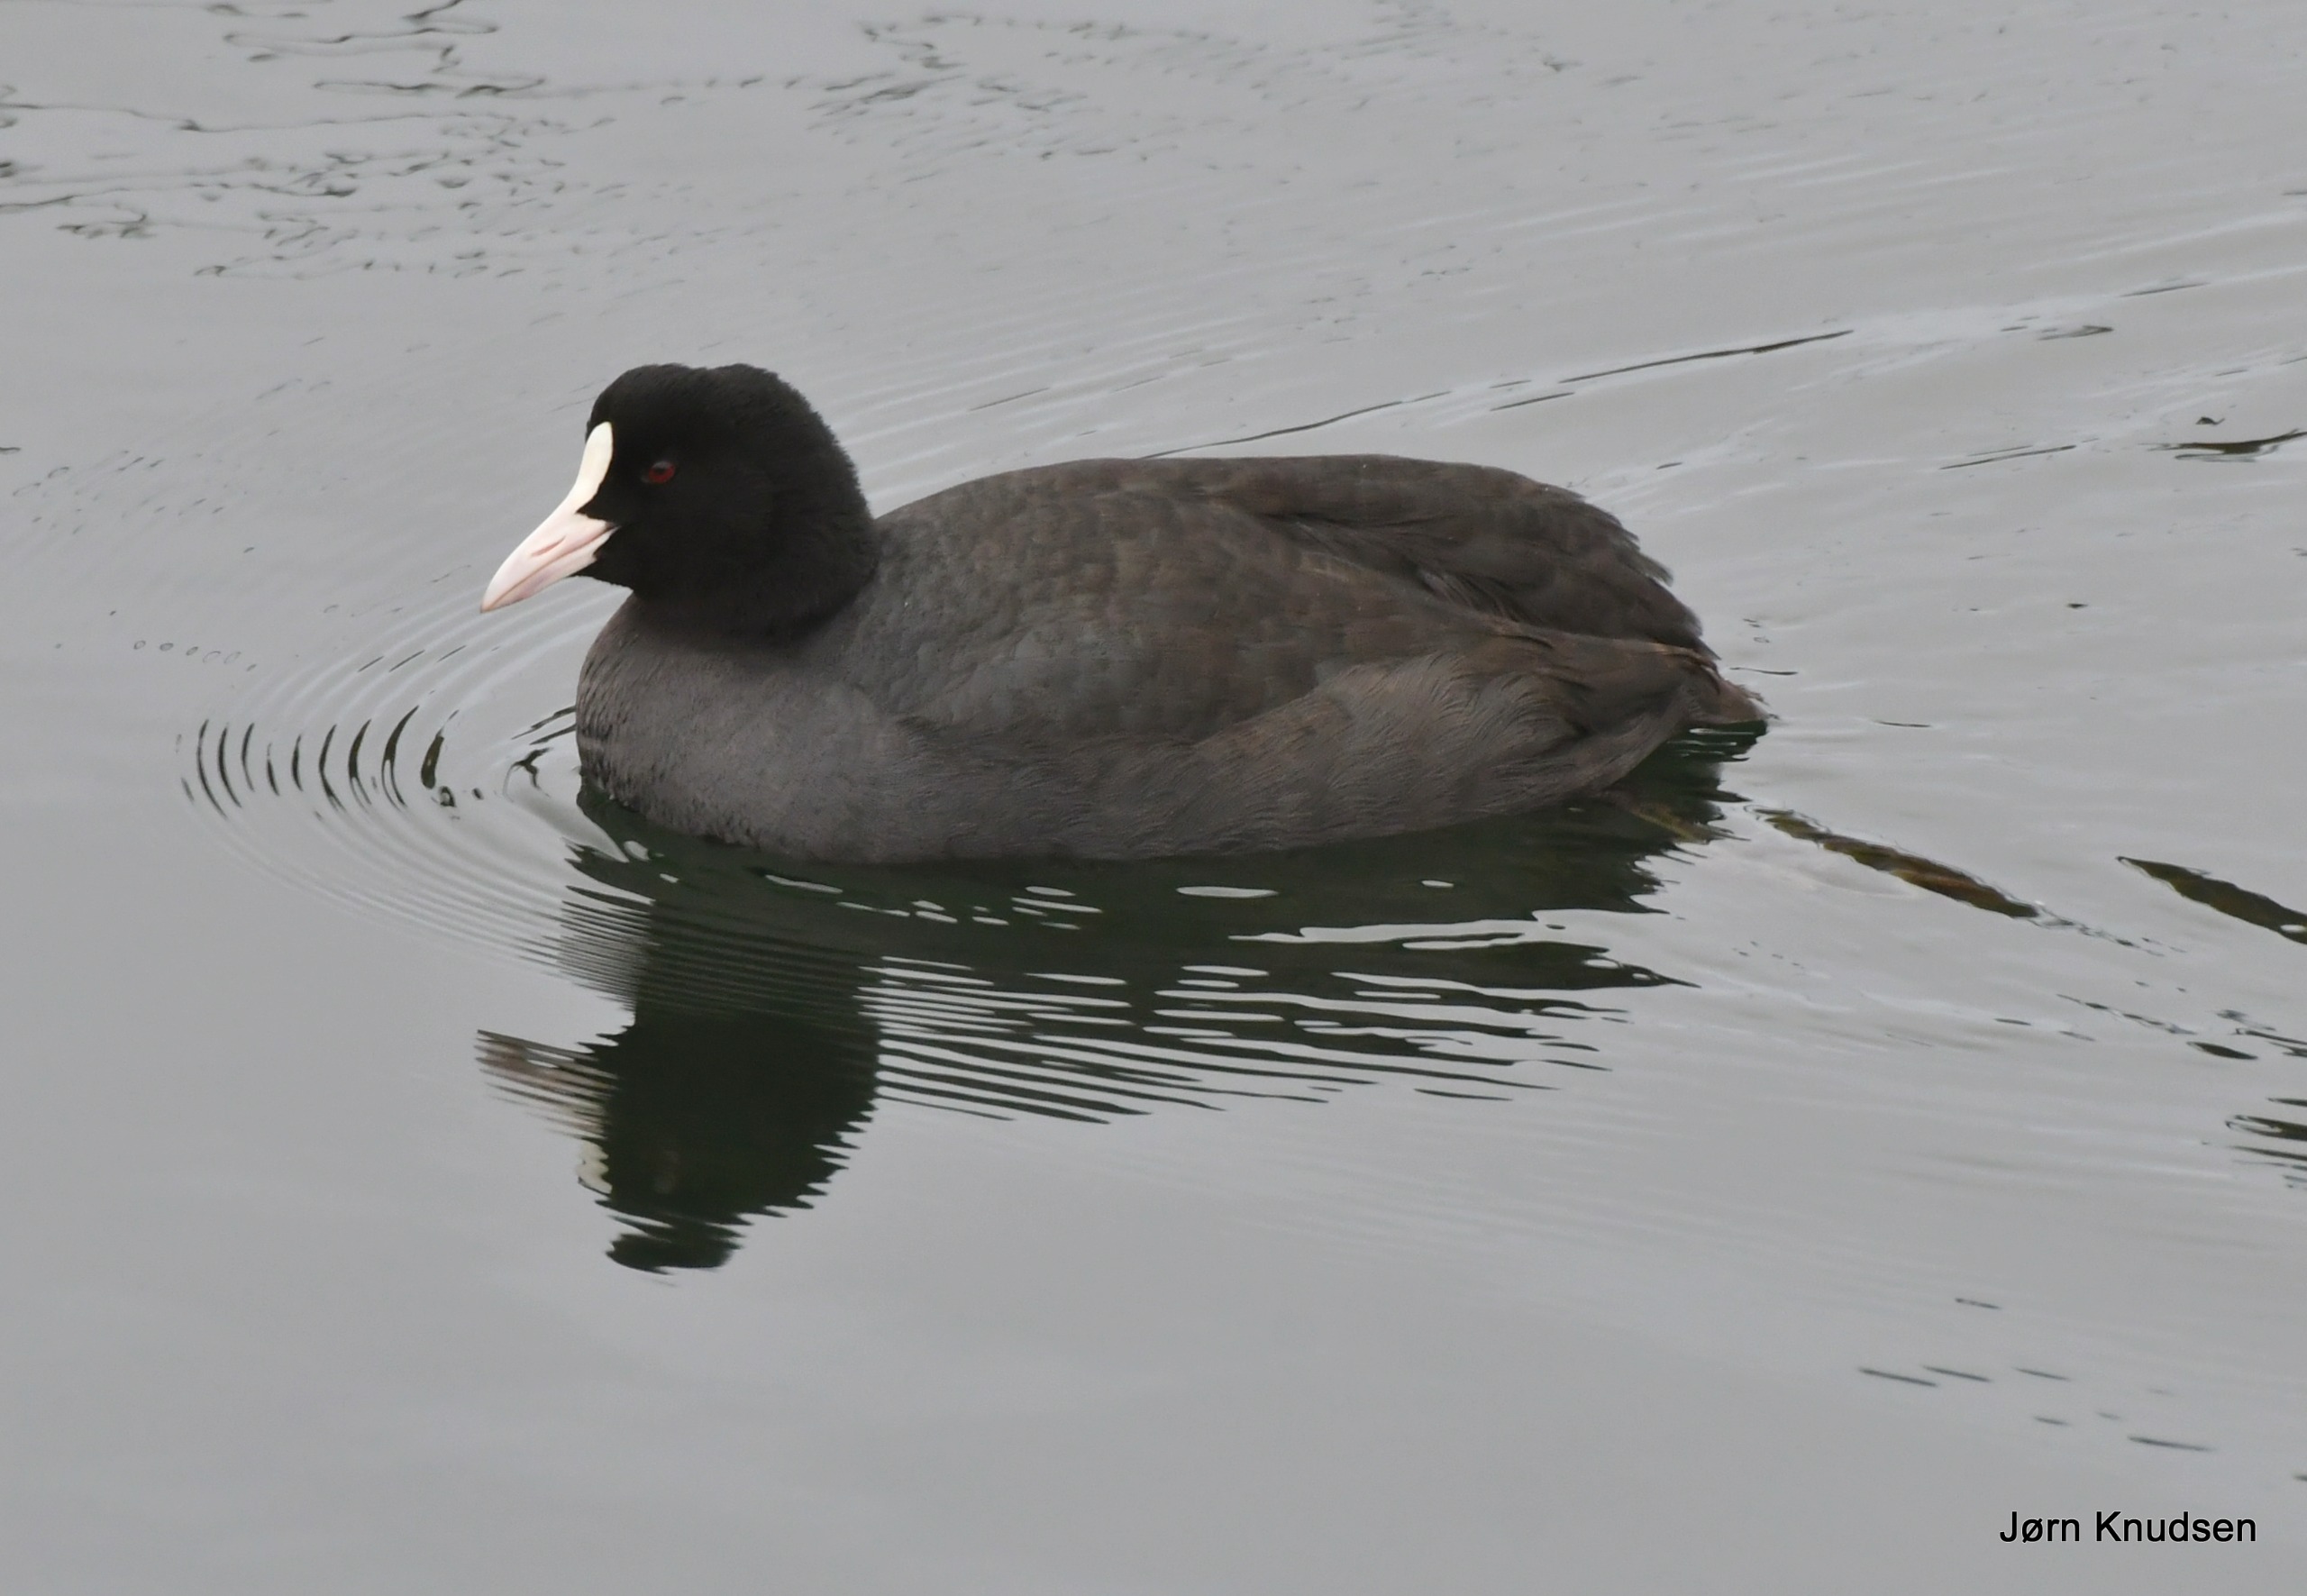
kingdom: Animalia
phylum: Chordata
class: Aves
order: Gruiformes
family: Rallidae
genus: Fulica
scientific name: Fulica atra
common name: Blishøne
